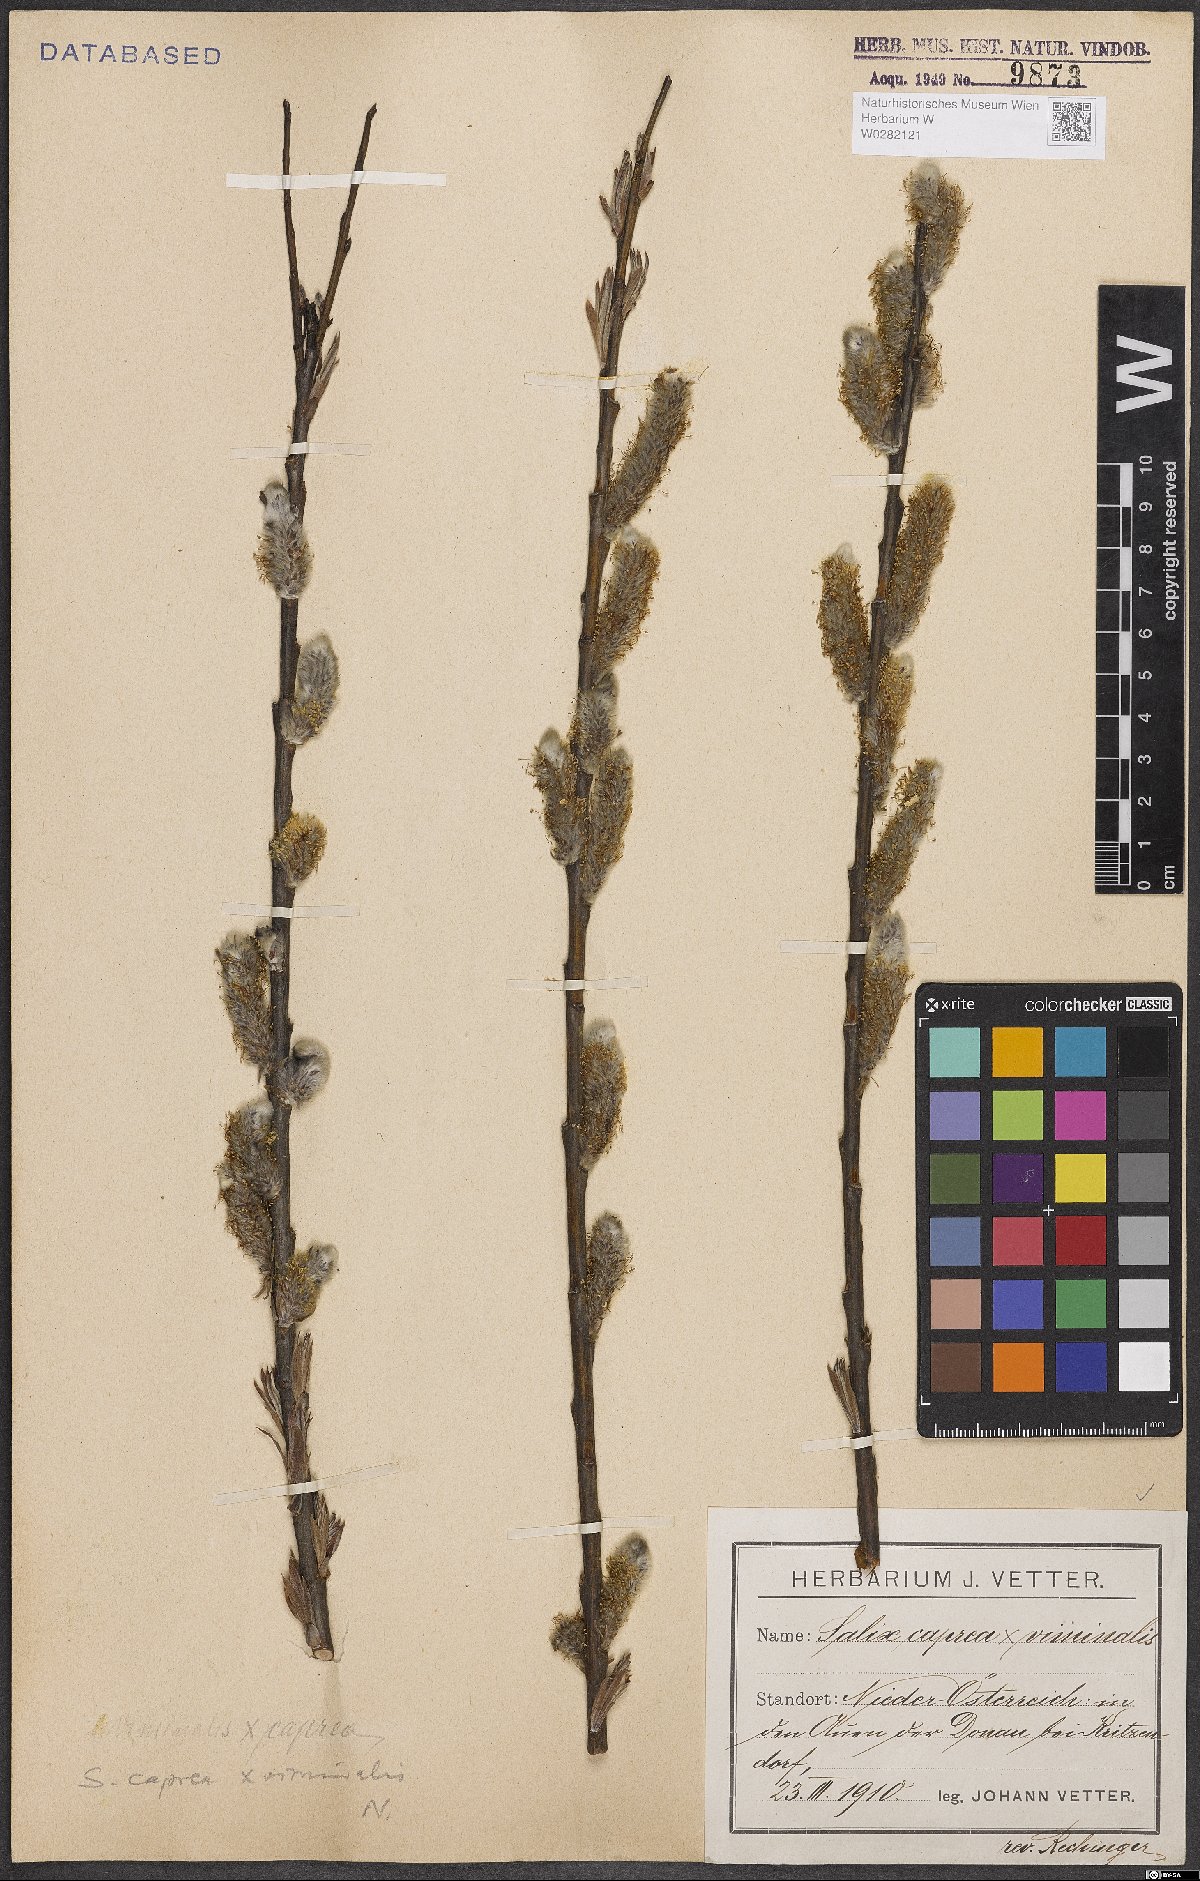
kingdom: Plantae
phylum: Tracheophyta
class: Magnoliopsida
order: Malpighiales
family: Salicaceae
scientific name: Salicaceae
